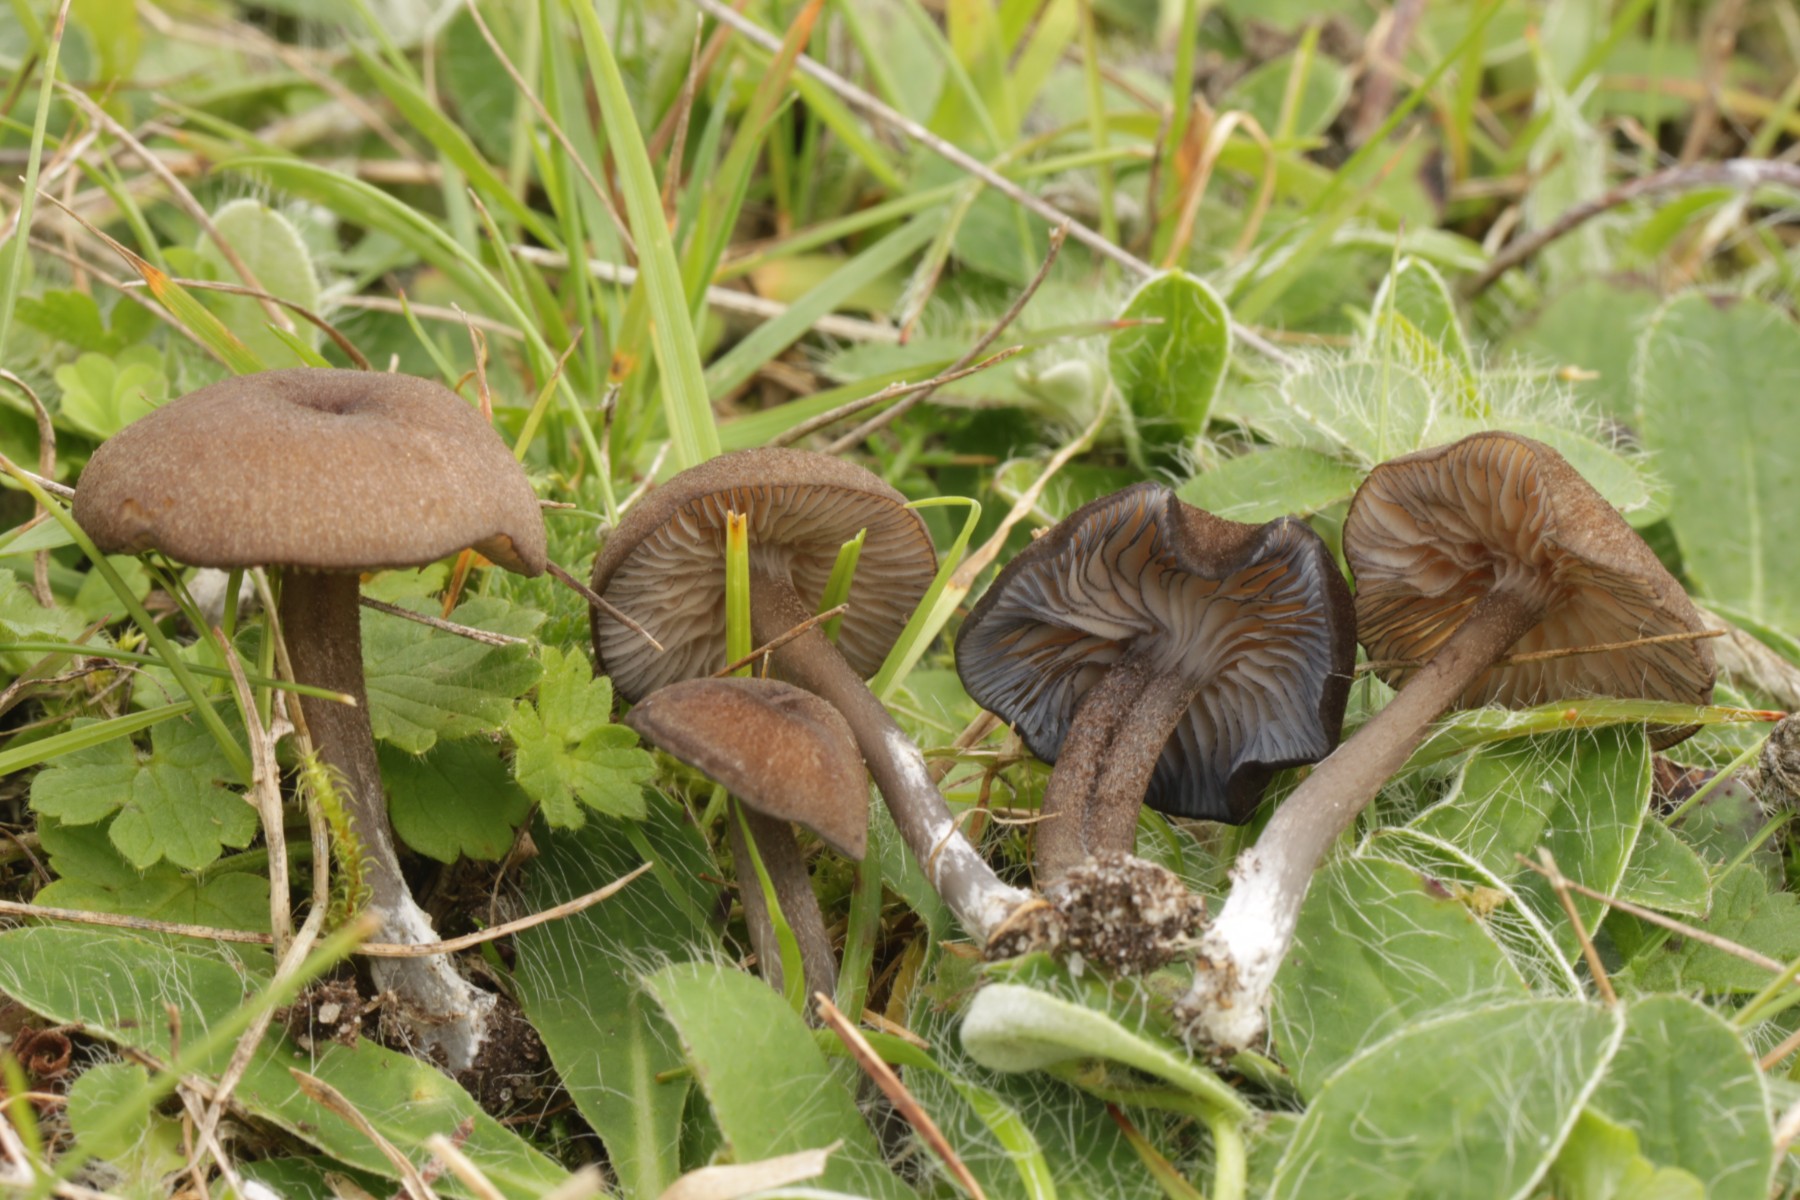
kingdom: Fungi
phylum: Basidiomycota
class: Agaricomycetes
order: Agaricales
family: Entolomataceae
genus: Entoloma
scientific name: Entoloma
